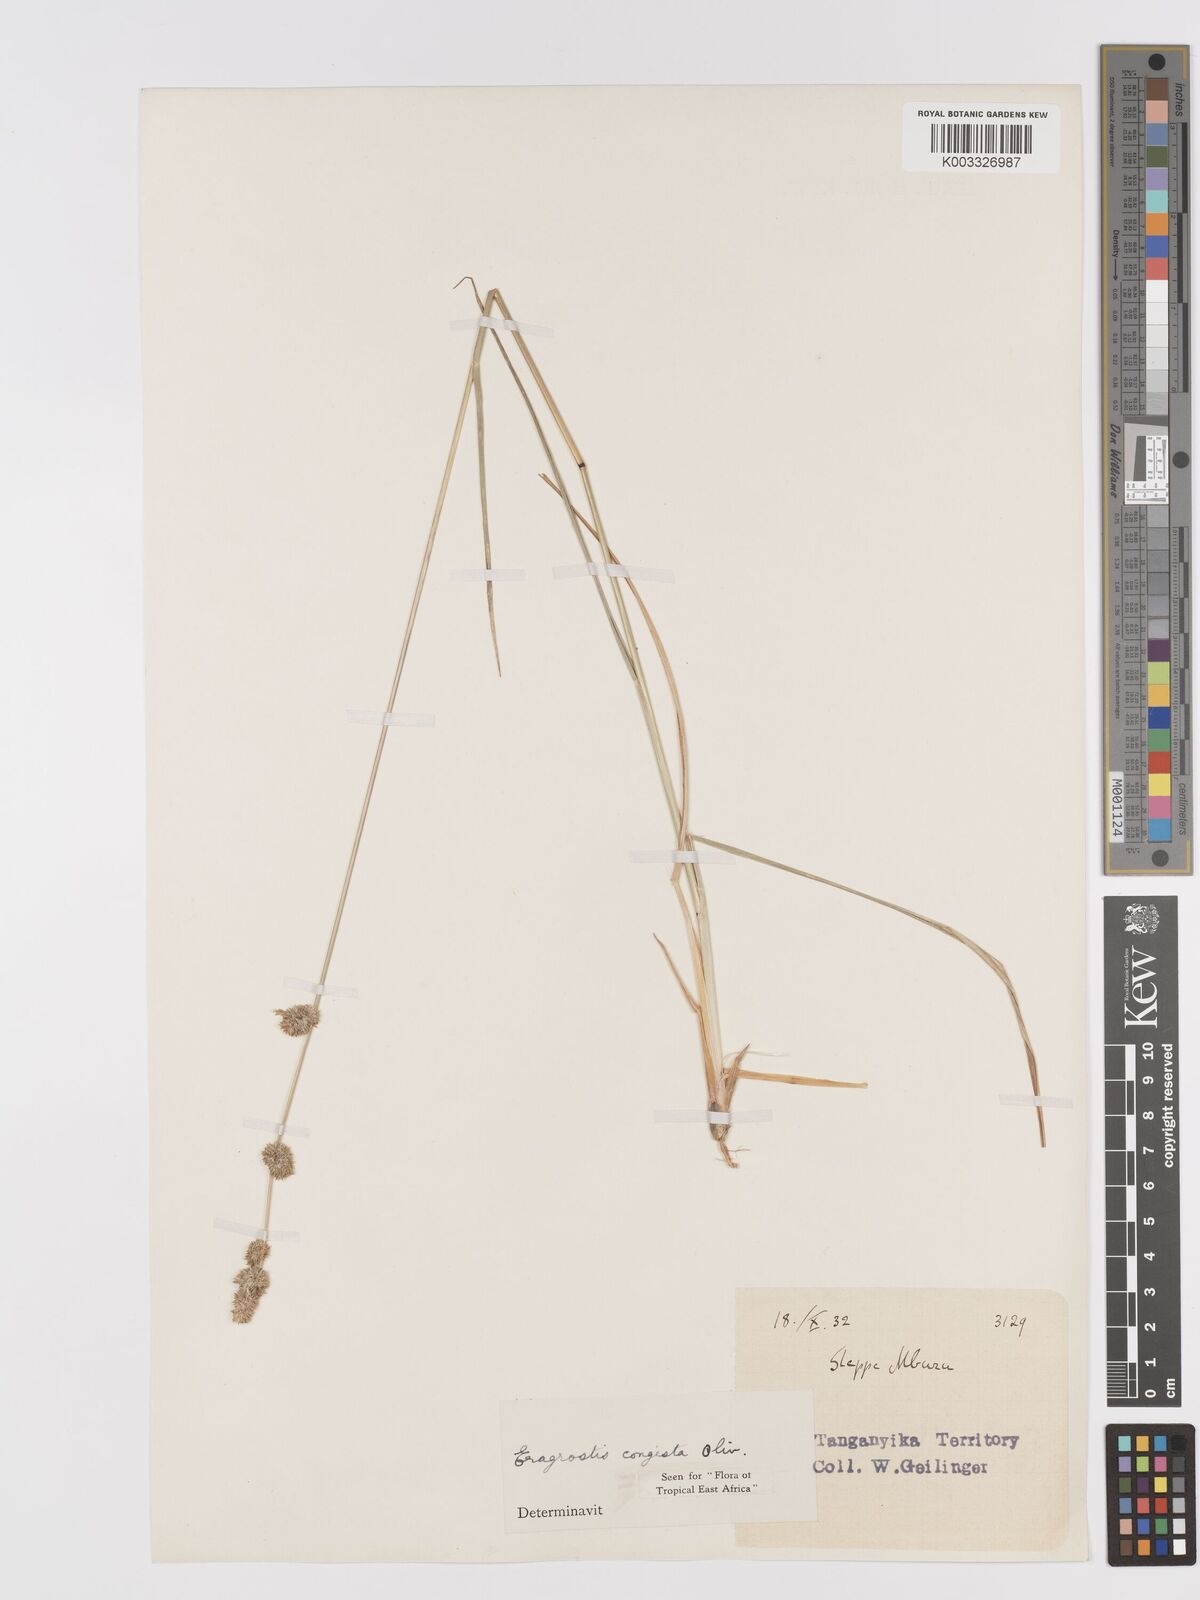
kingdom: Plantae
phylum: Tracheophyta
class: Liliopsida
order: Poales
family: Poaceae
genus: Eragrostis
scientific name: Eragrostis congesta
